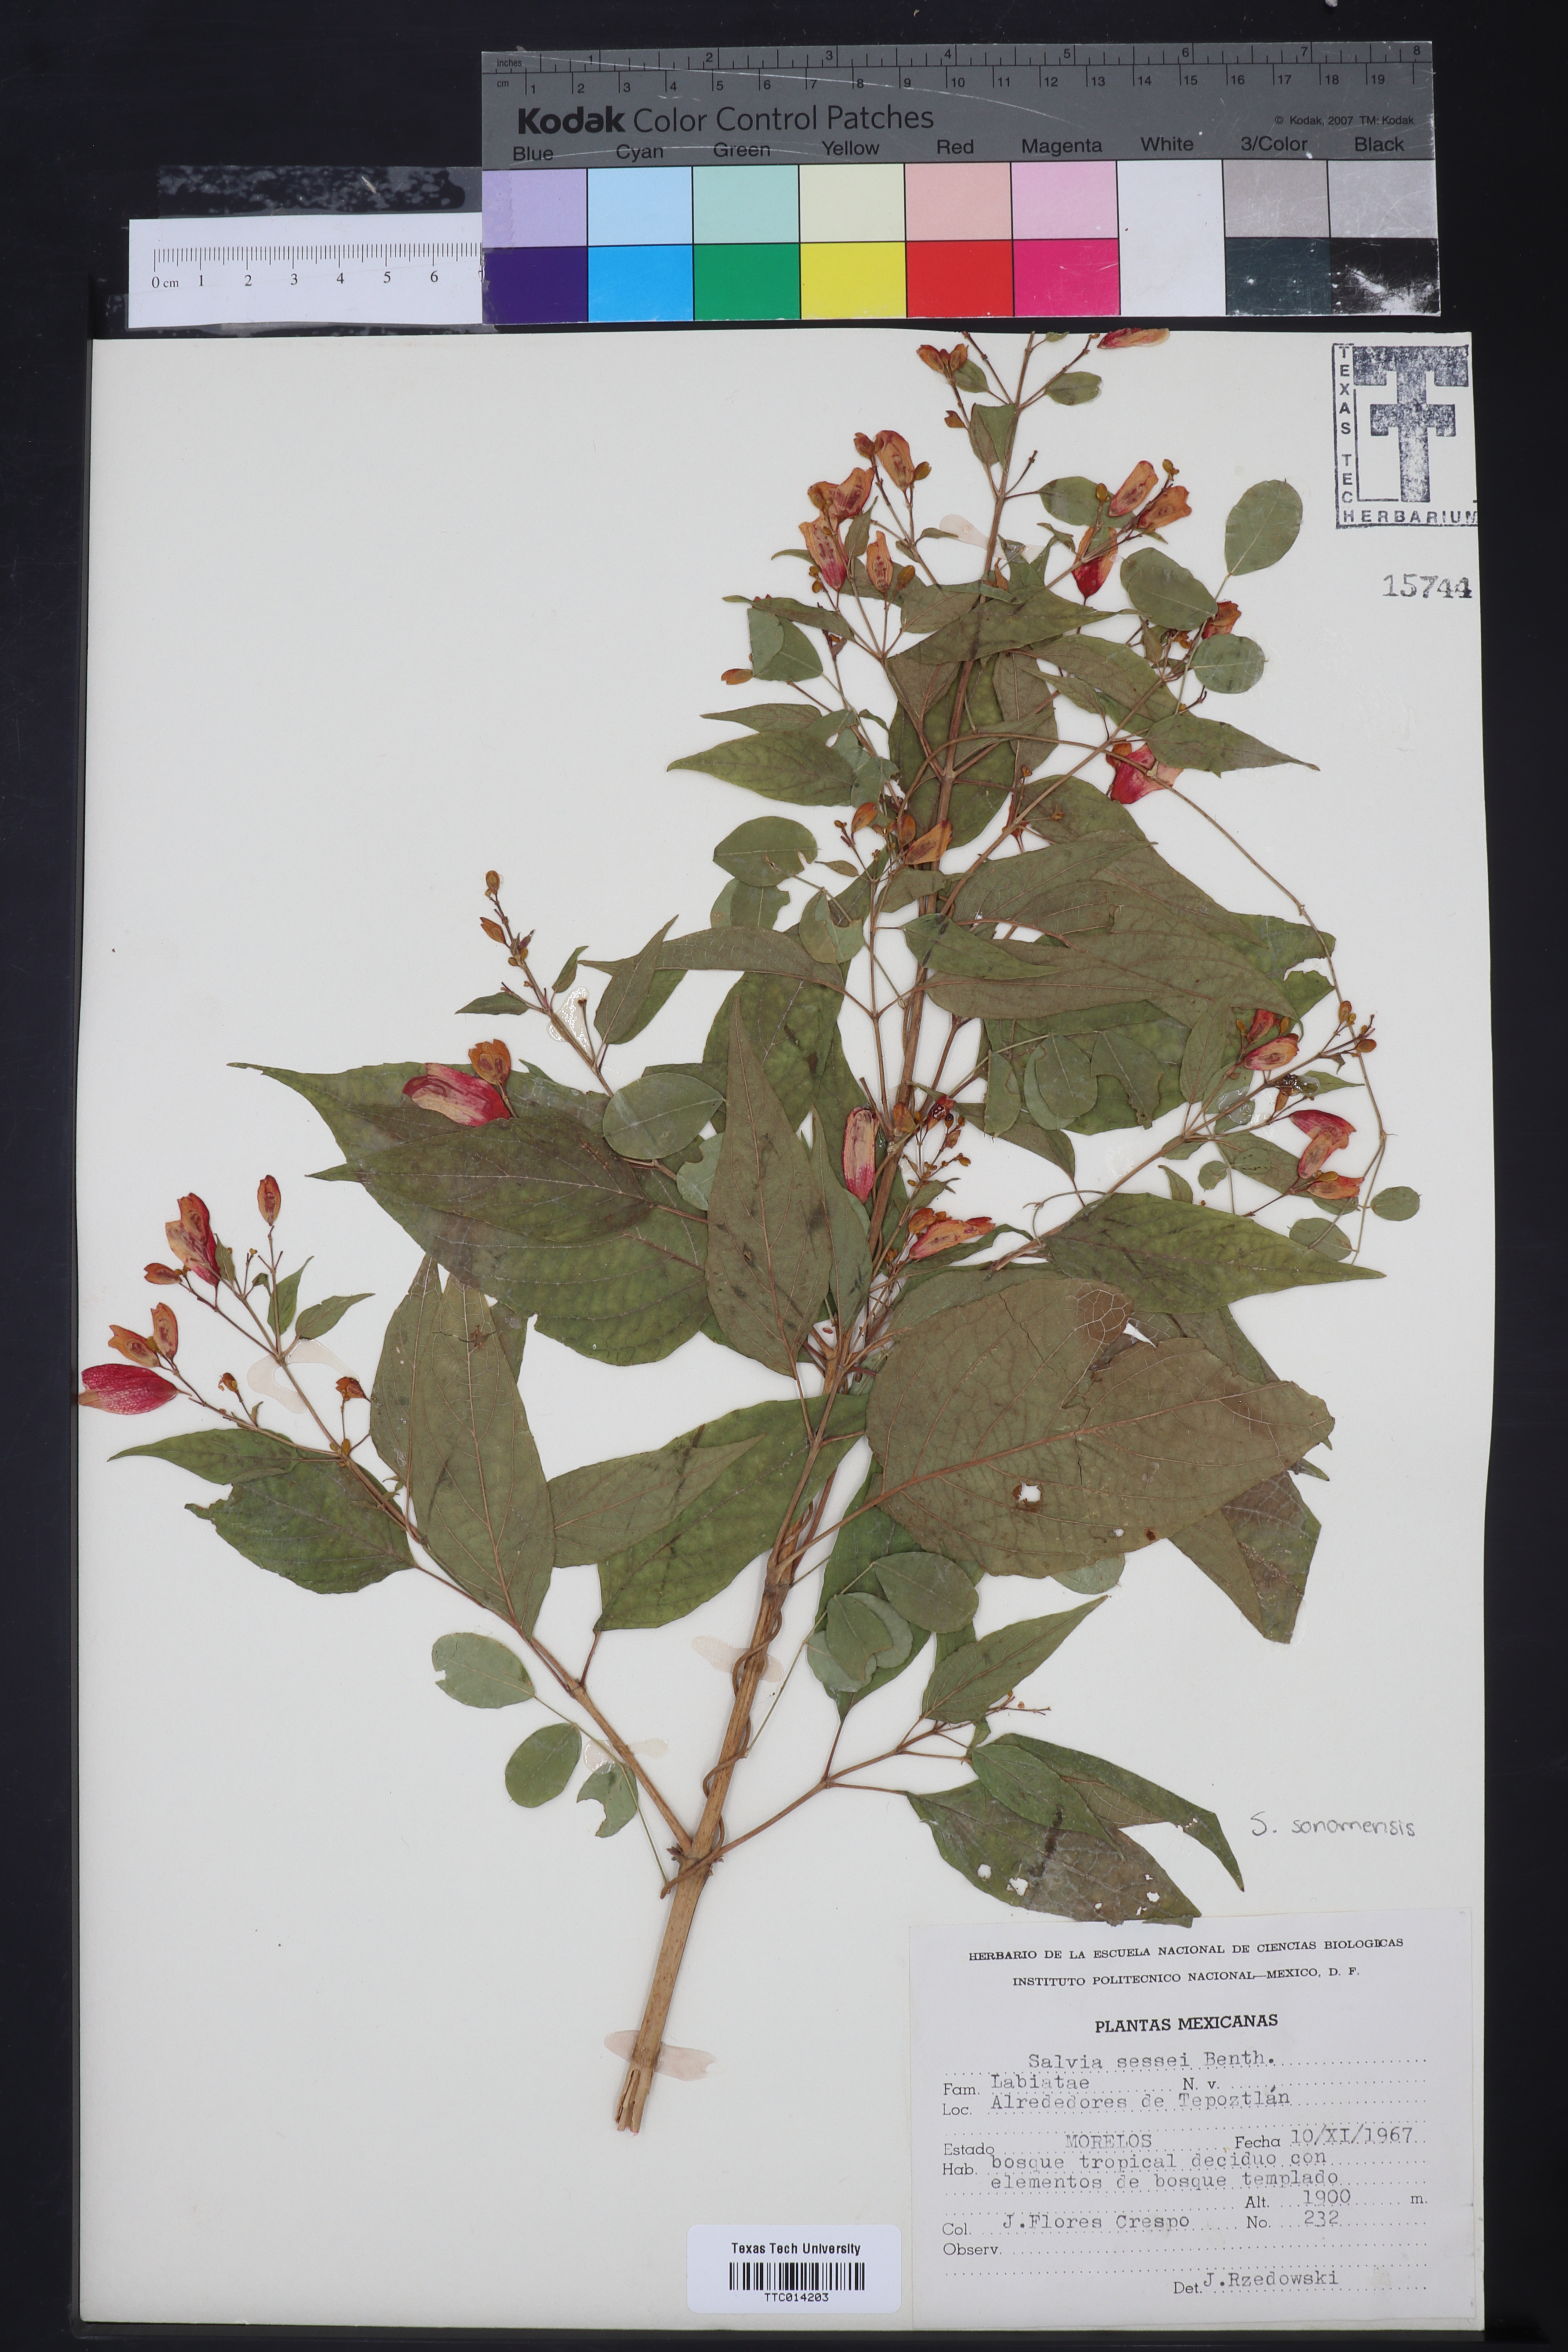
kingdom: Plantae
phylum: Tracheophyta
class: Magnoliopsida
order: Lamiales
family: Lamiaceae
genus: Salvia
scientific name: Salvia sessei
